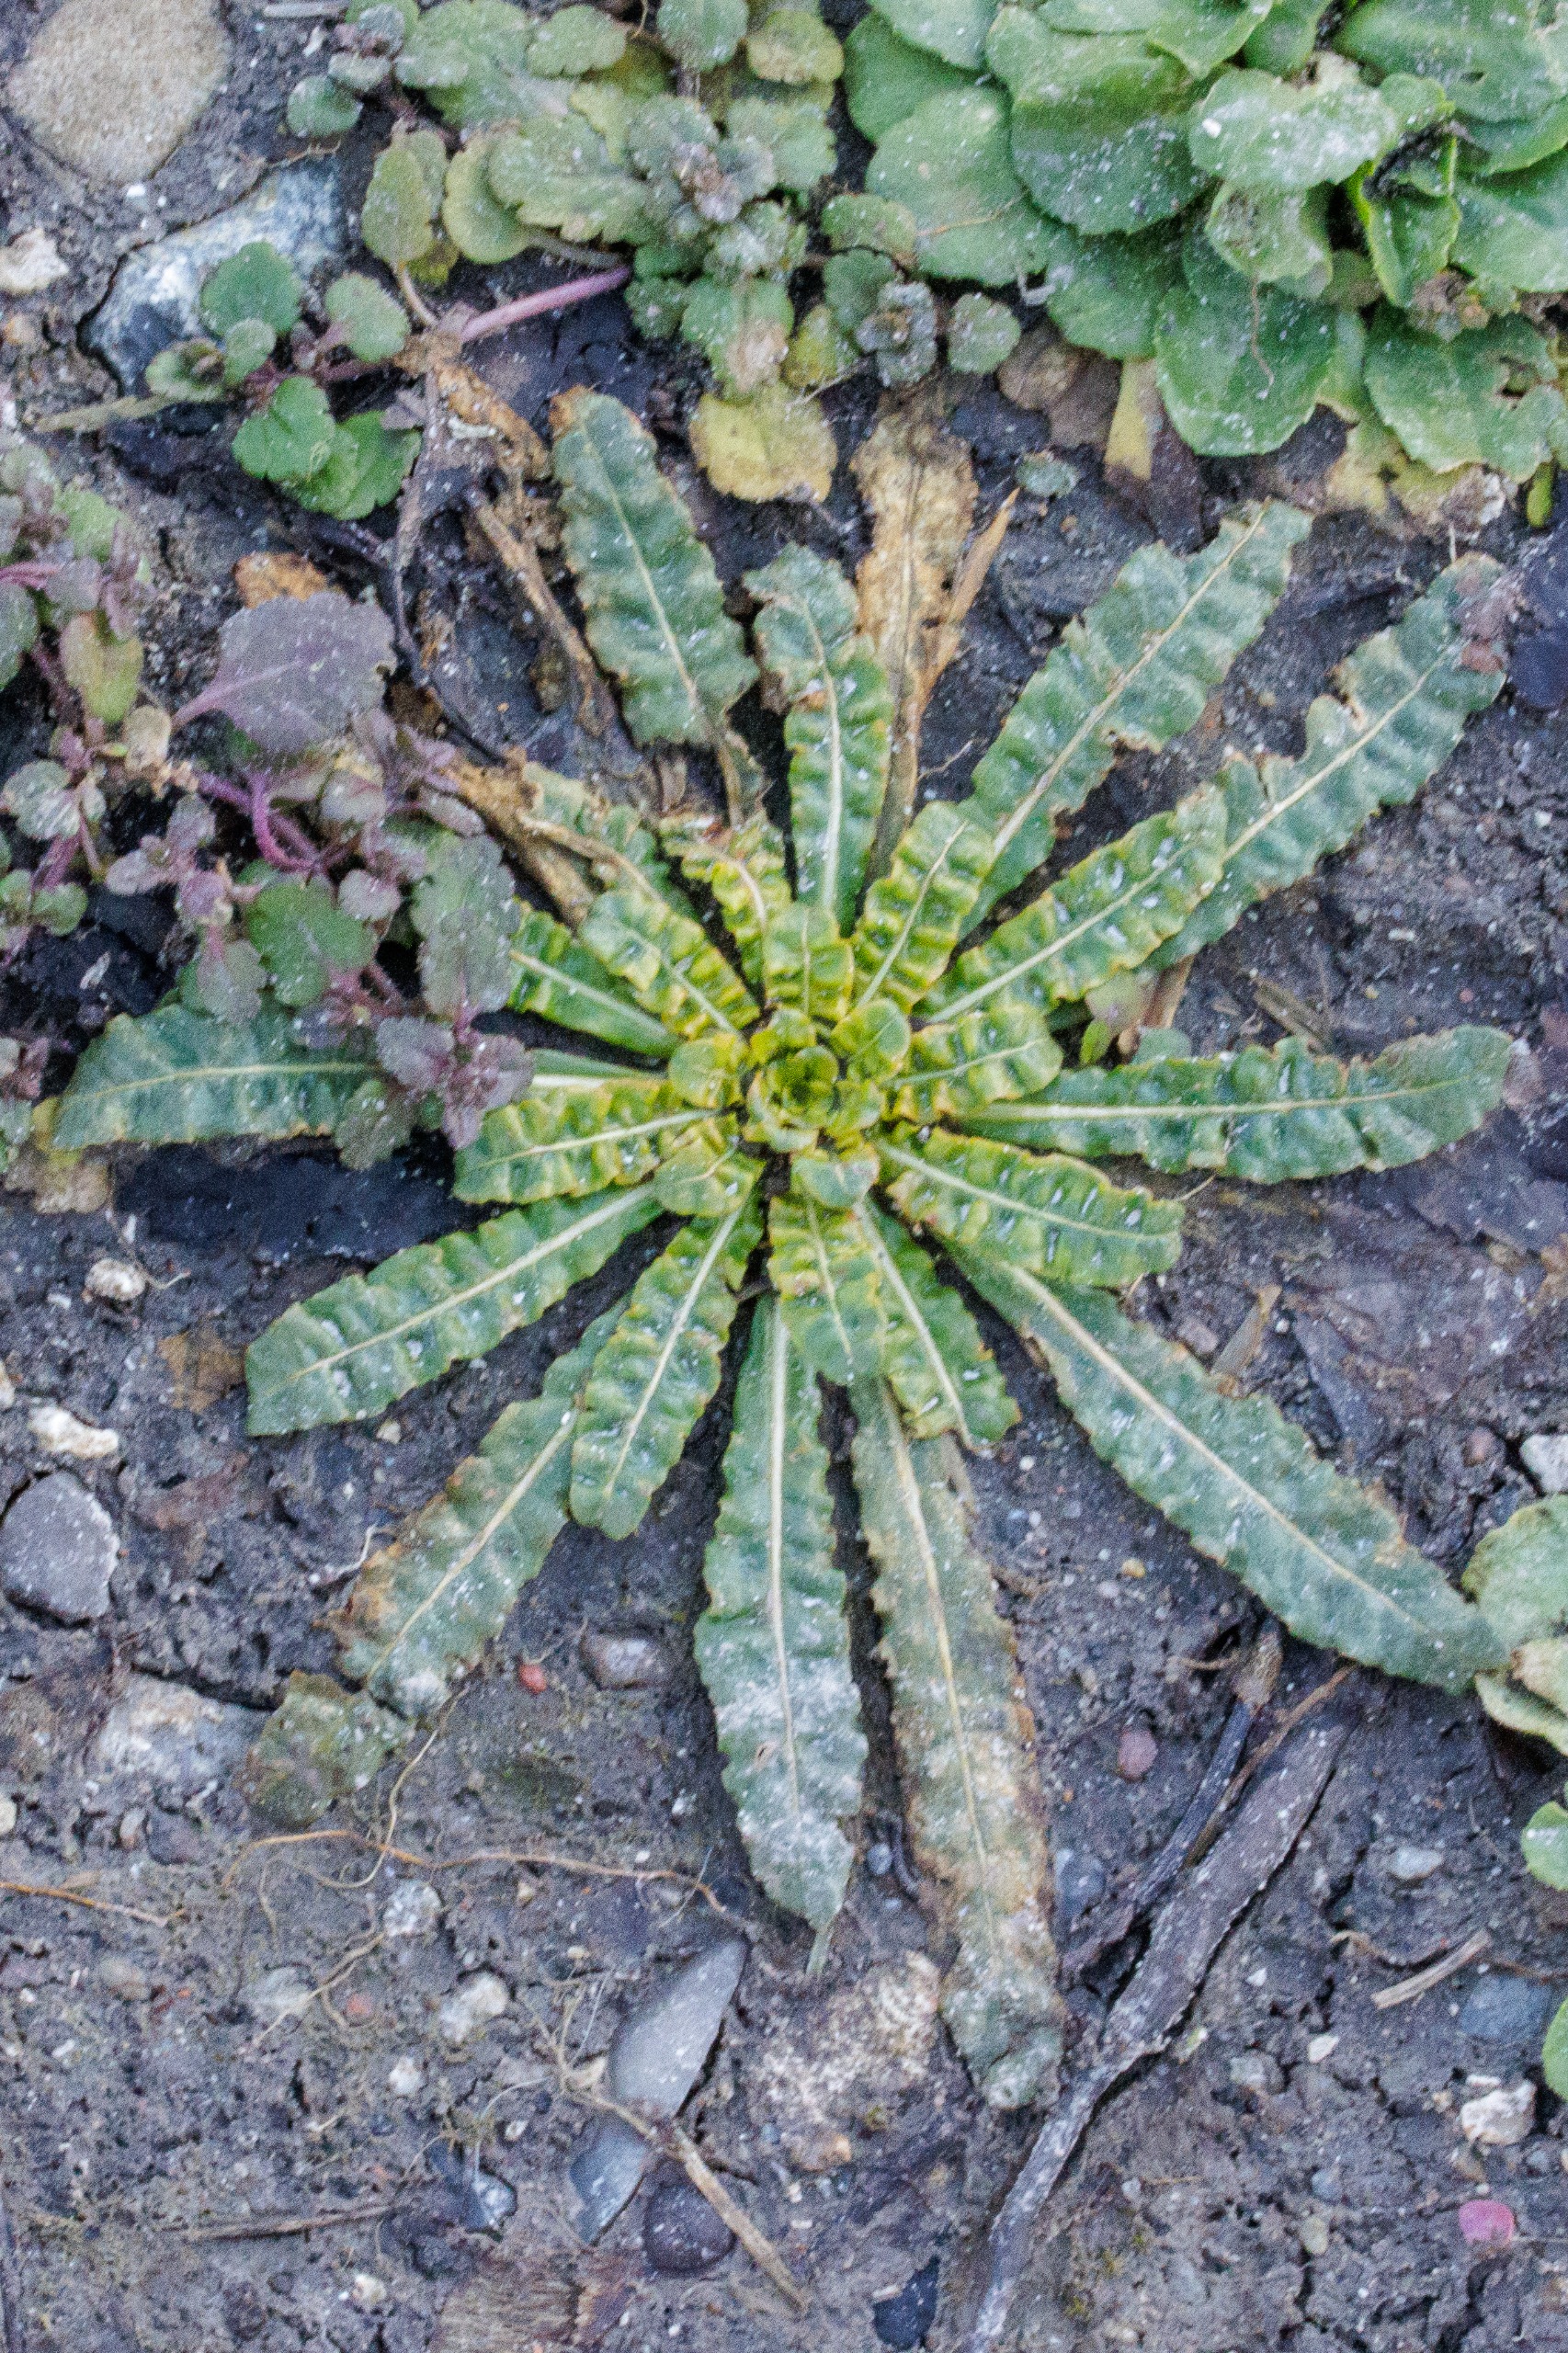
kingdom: Plantae
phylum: Tracheophyta
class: Magnoliopsida
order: Brassicales
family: Resedaceae
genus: Reseda
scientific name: Reseda luteola
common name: Farve-reseda
